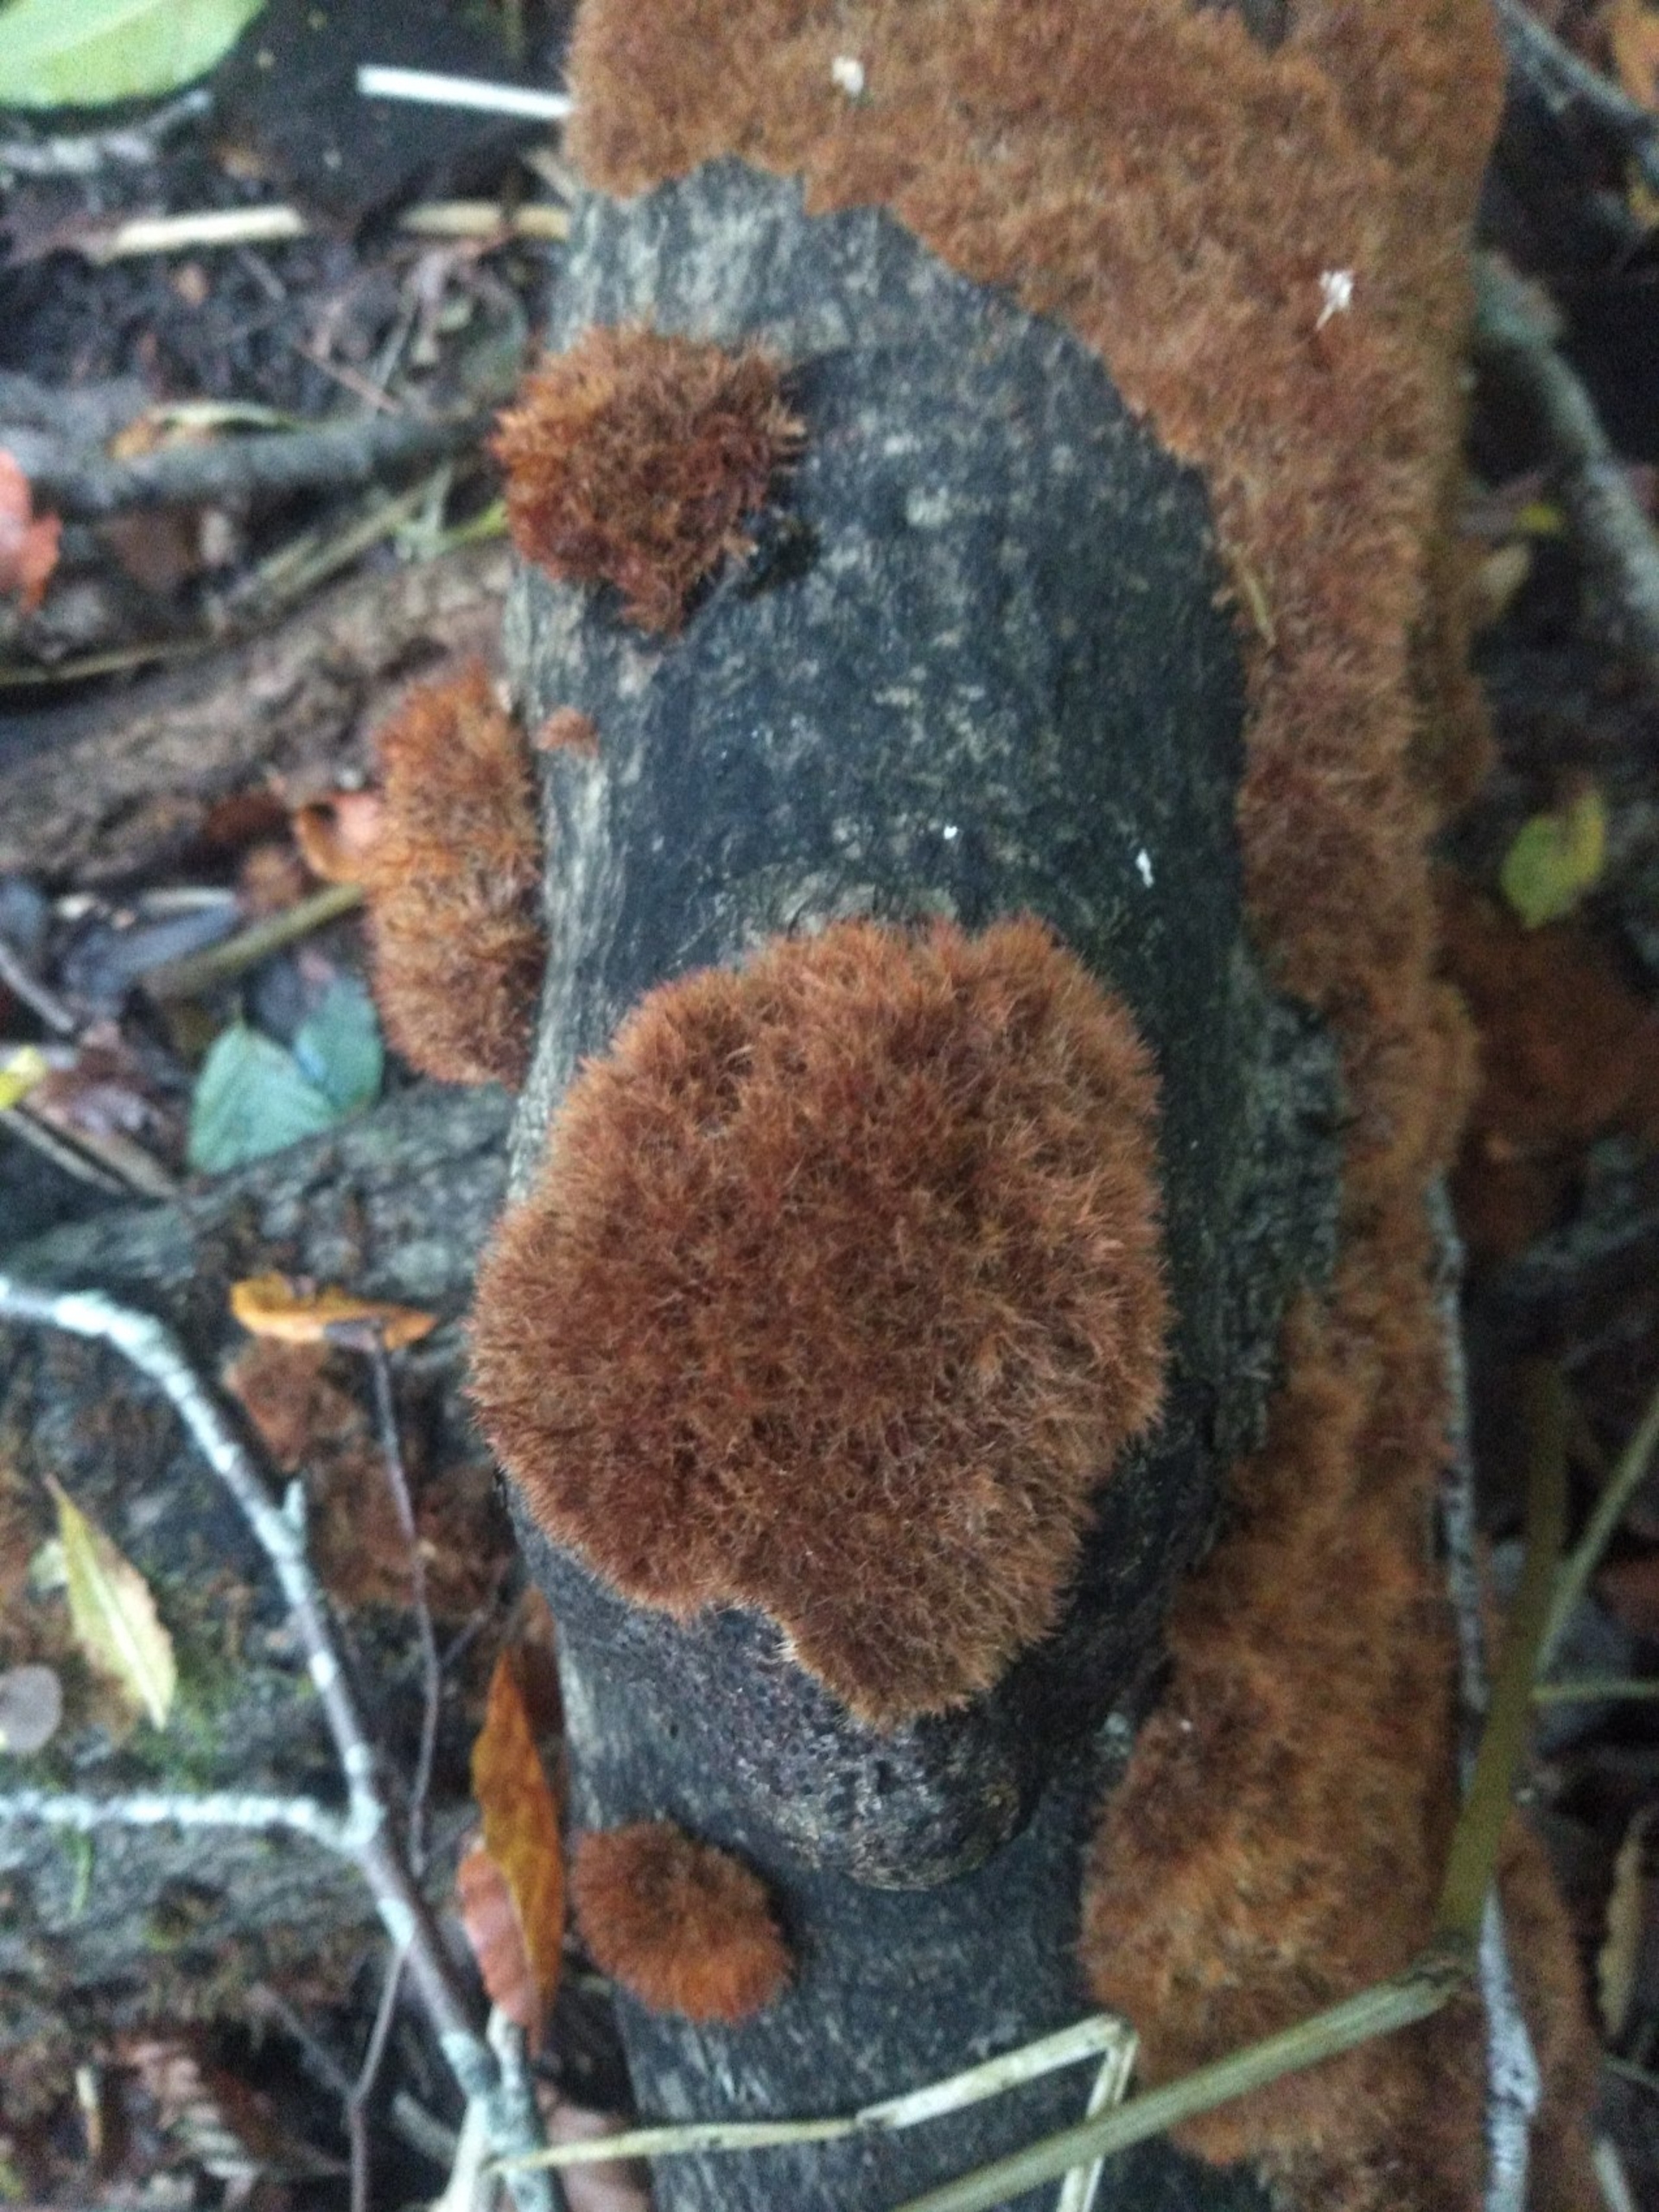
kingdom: Fungi
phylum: Basidiomycota
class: Agaricomycetes
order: Agaricales
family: Psathyrellaceae
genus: Ozonium
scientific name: Ozonium
